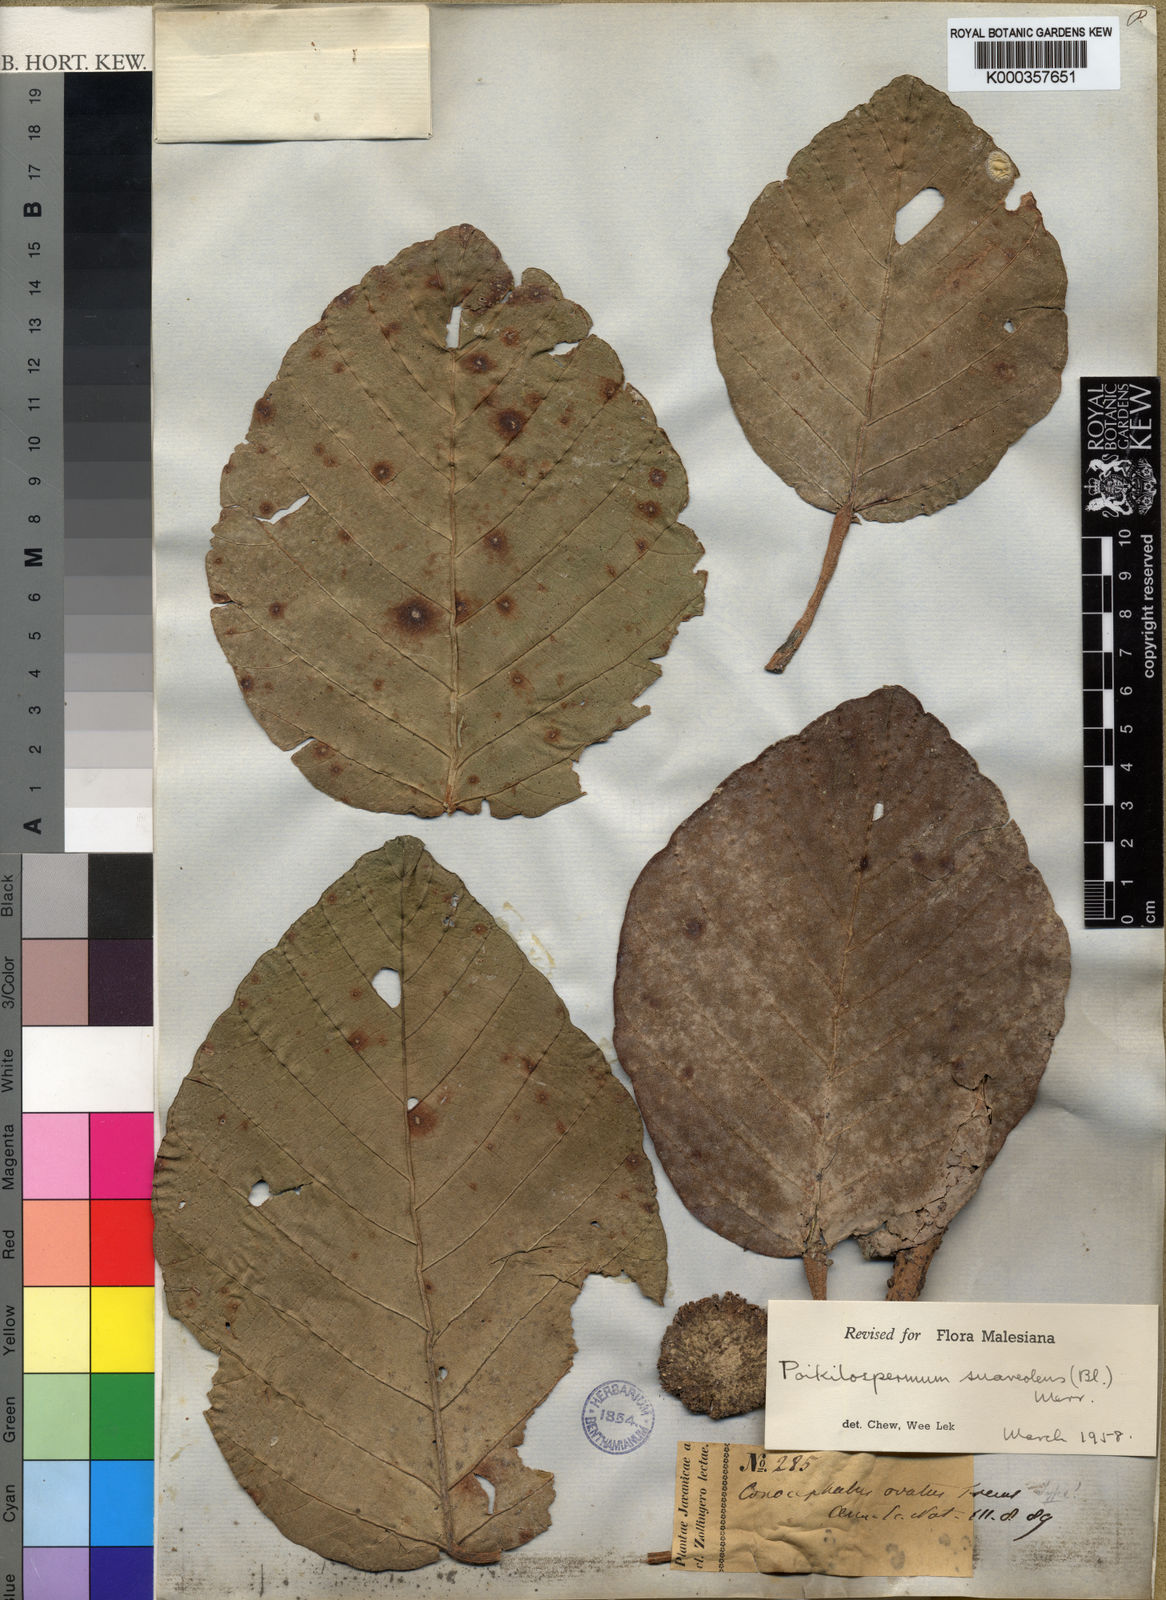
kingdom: Plantae
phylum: Tracheophyta
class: Magnoliopsida
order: Rosales
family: Urticaceae
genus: Poikilospermum
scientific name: Poikilospermum suaveolens
